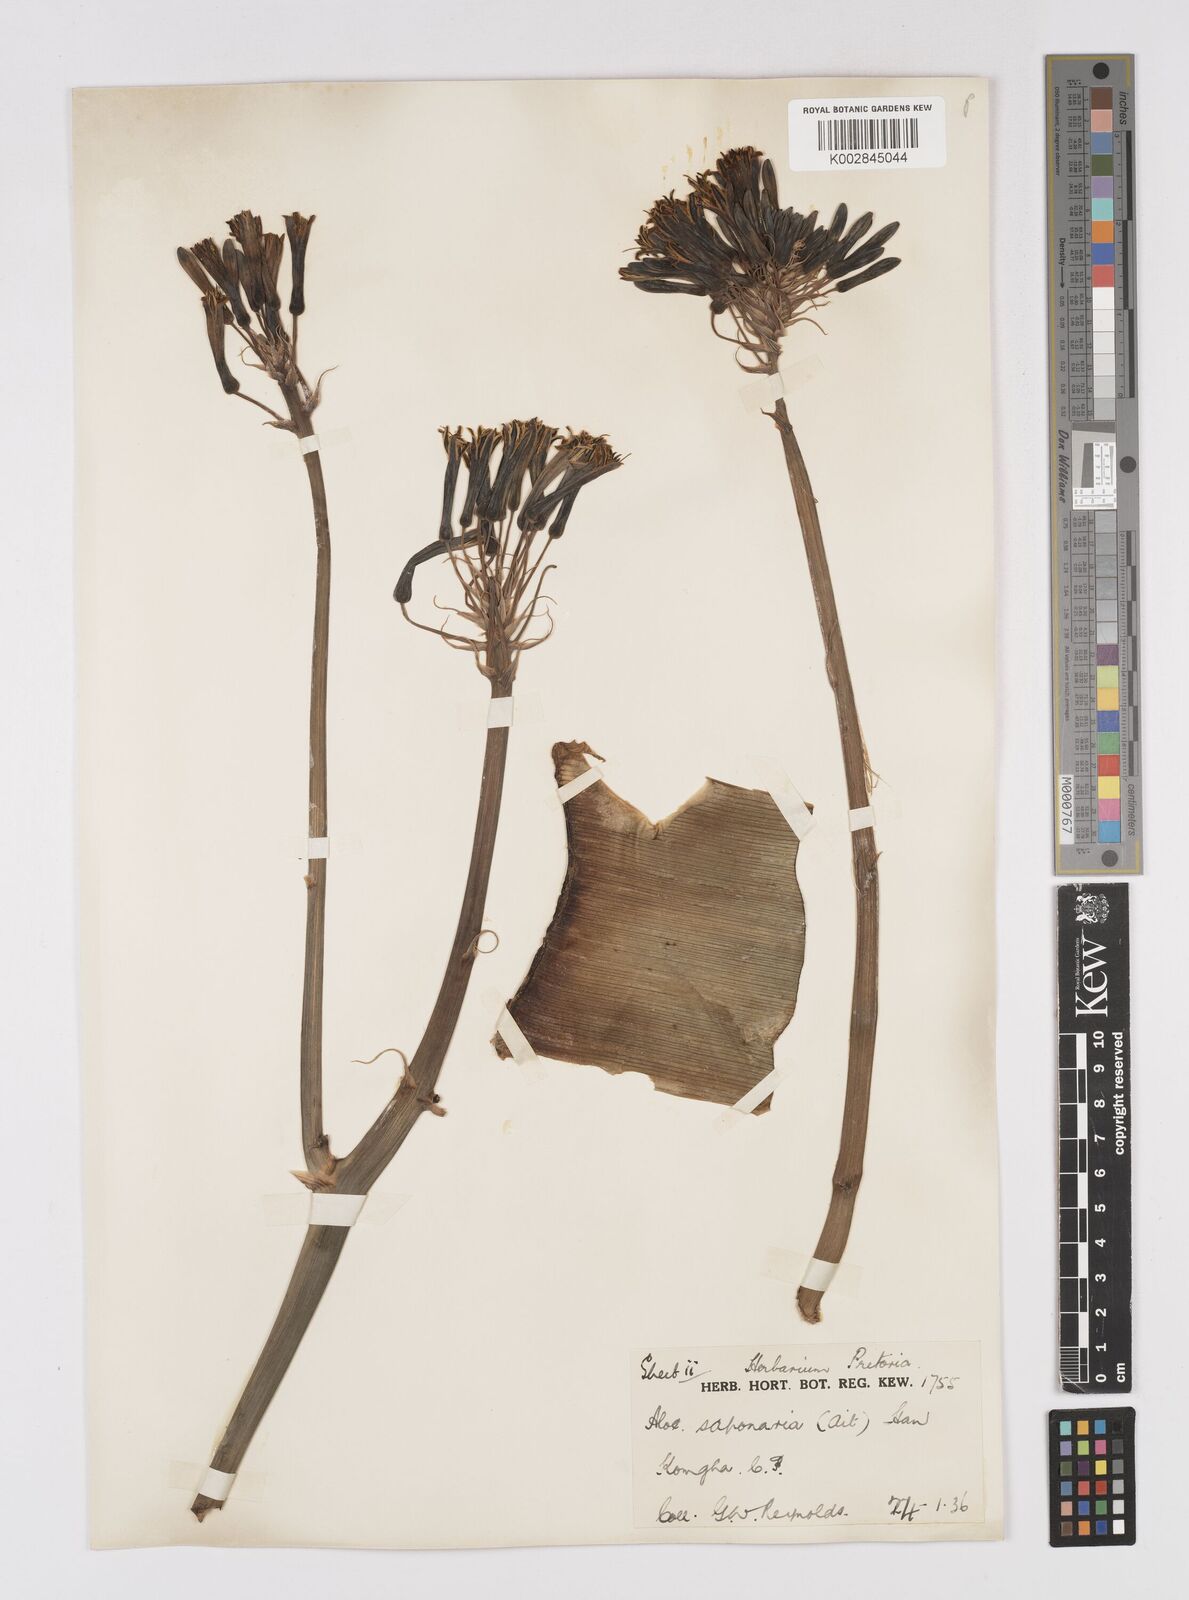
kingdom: Plantae
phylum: Tracheophyta
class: Liliopsida
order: Asparagales
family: Asphodelaceae
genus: Aloe
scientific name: Aloe microstigma
